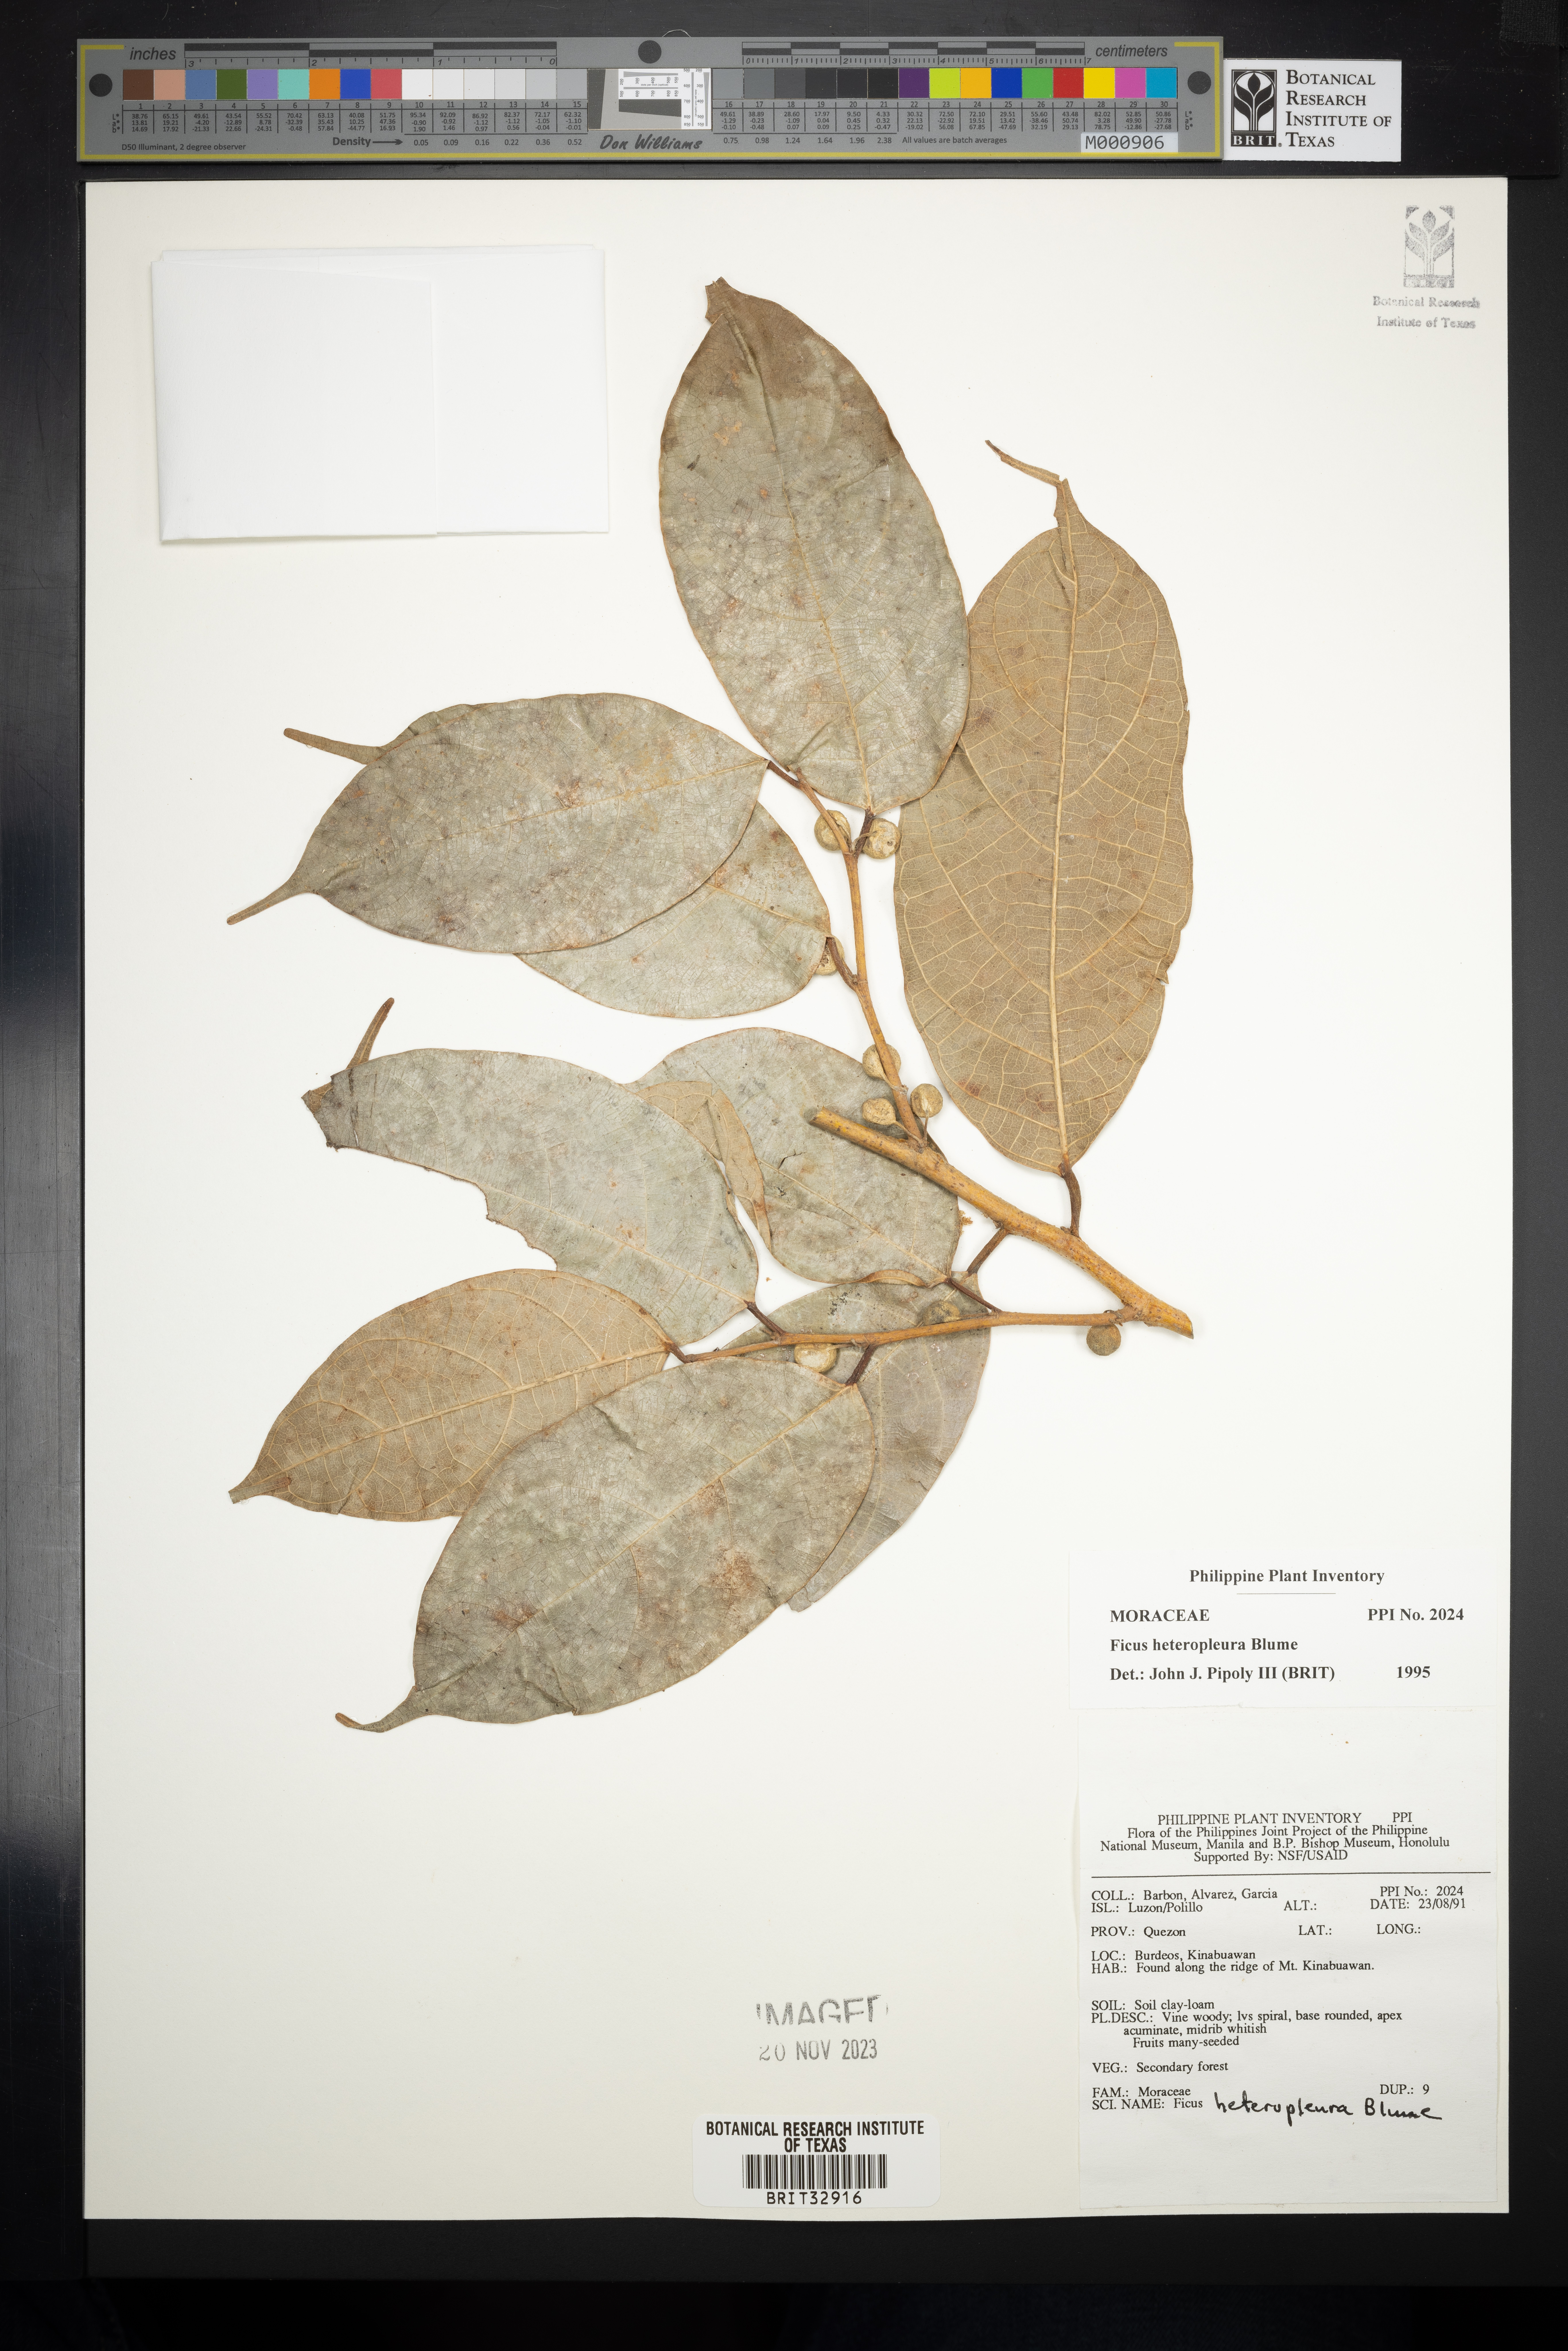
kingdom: Plantae
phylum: Tracheophyta
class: Magnoliopsida
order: Rosales
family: Moraceae
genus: Ficus
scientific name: Ficus heteropleura
